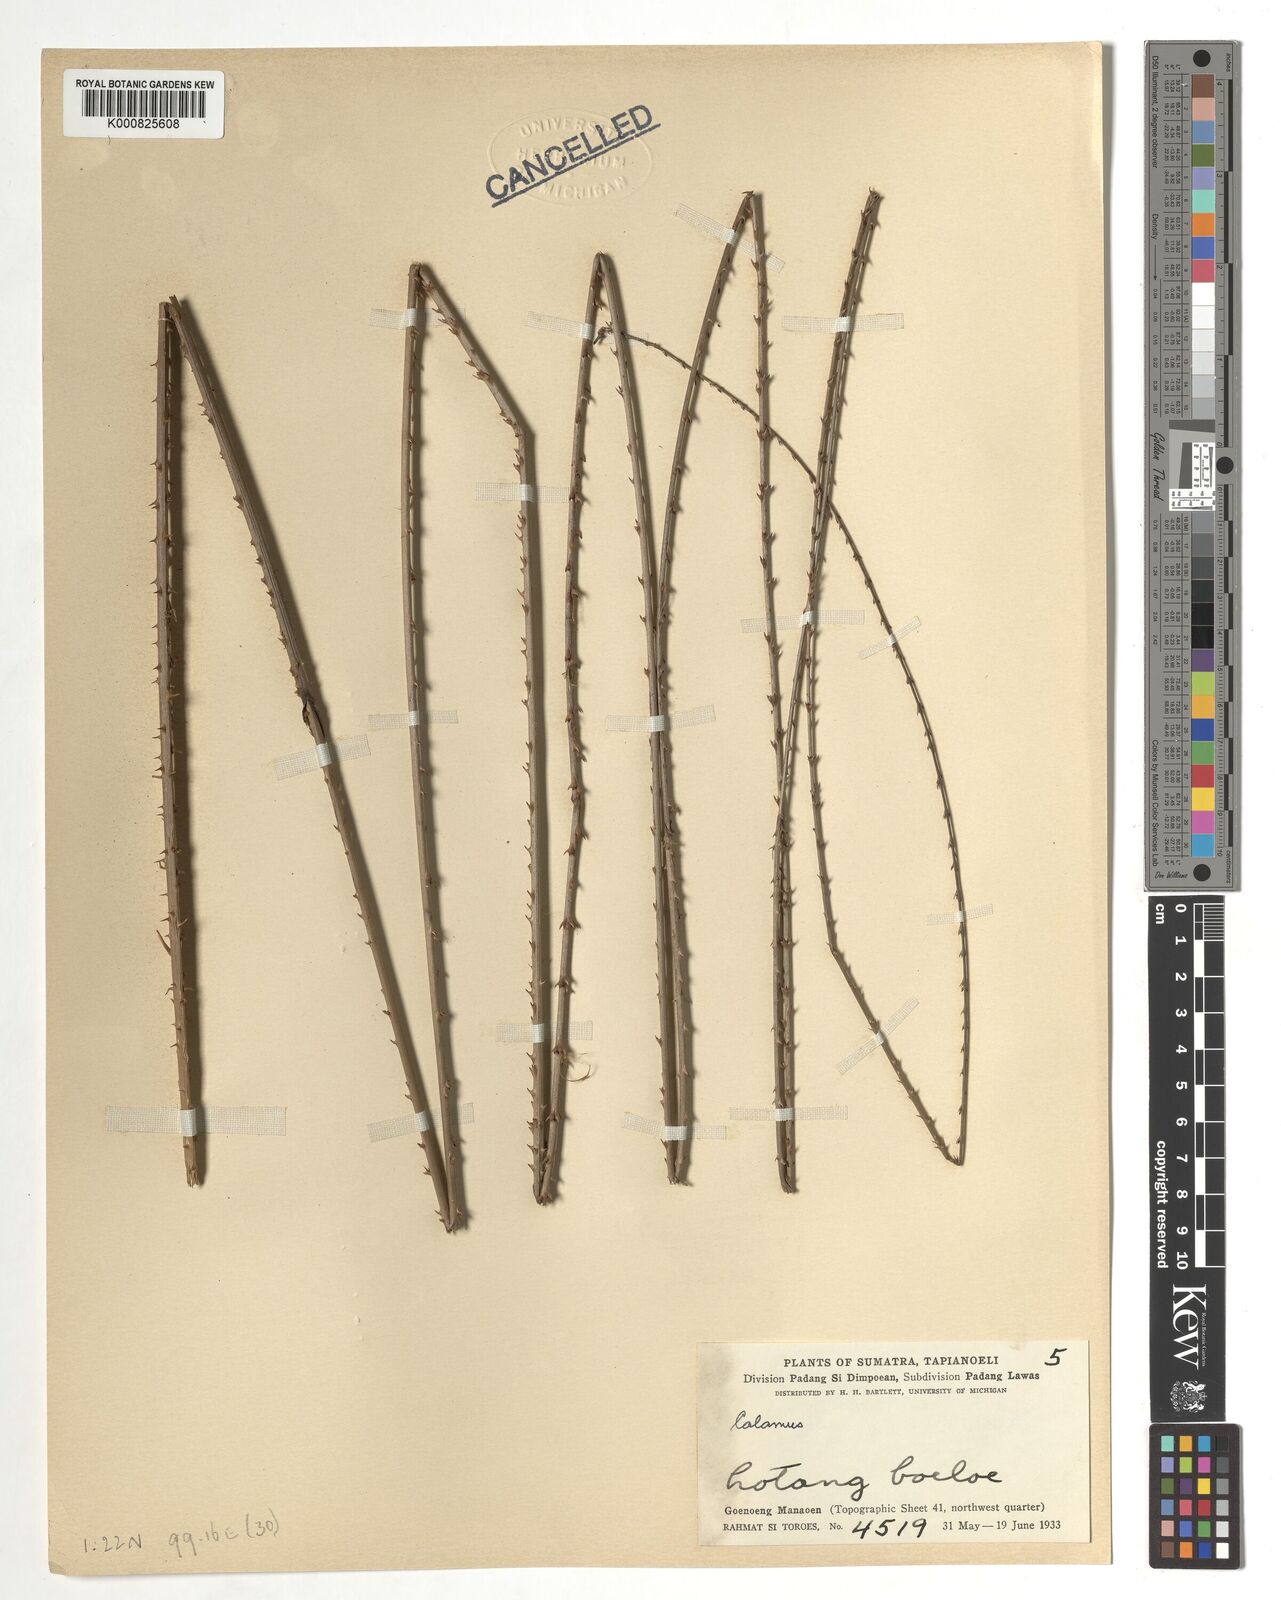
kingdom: Plantae
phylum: Tracheophyta
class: Liliopsida
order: Arecales
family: Arecaceae
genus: Calamus
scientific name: Calamus
